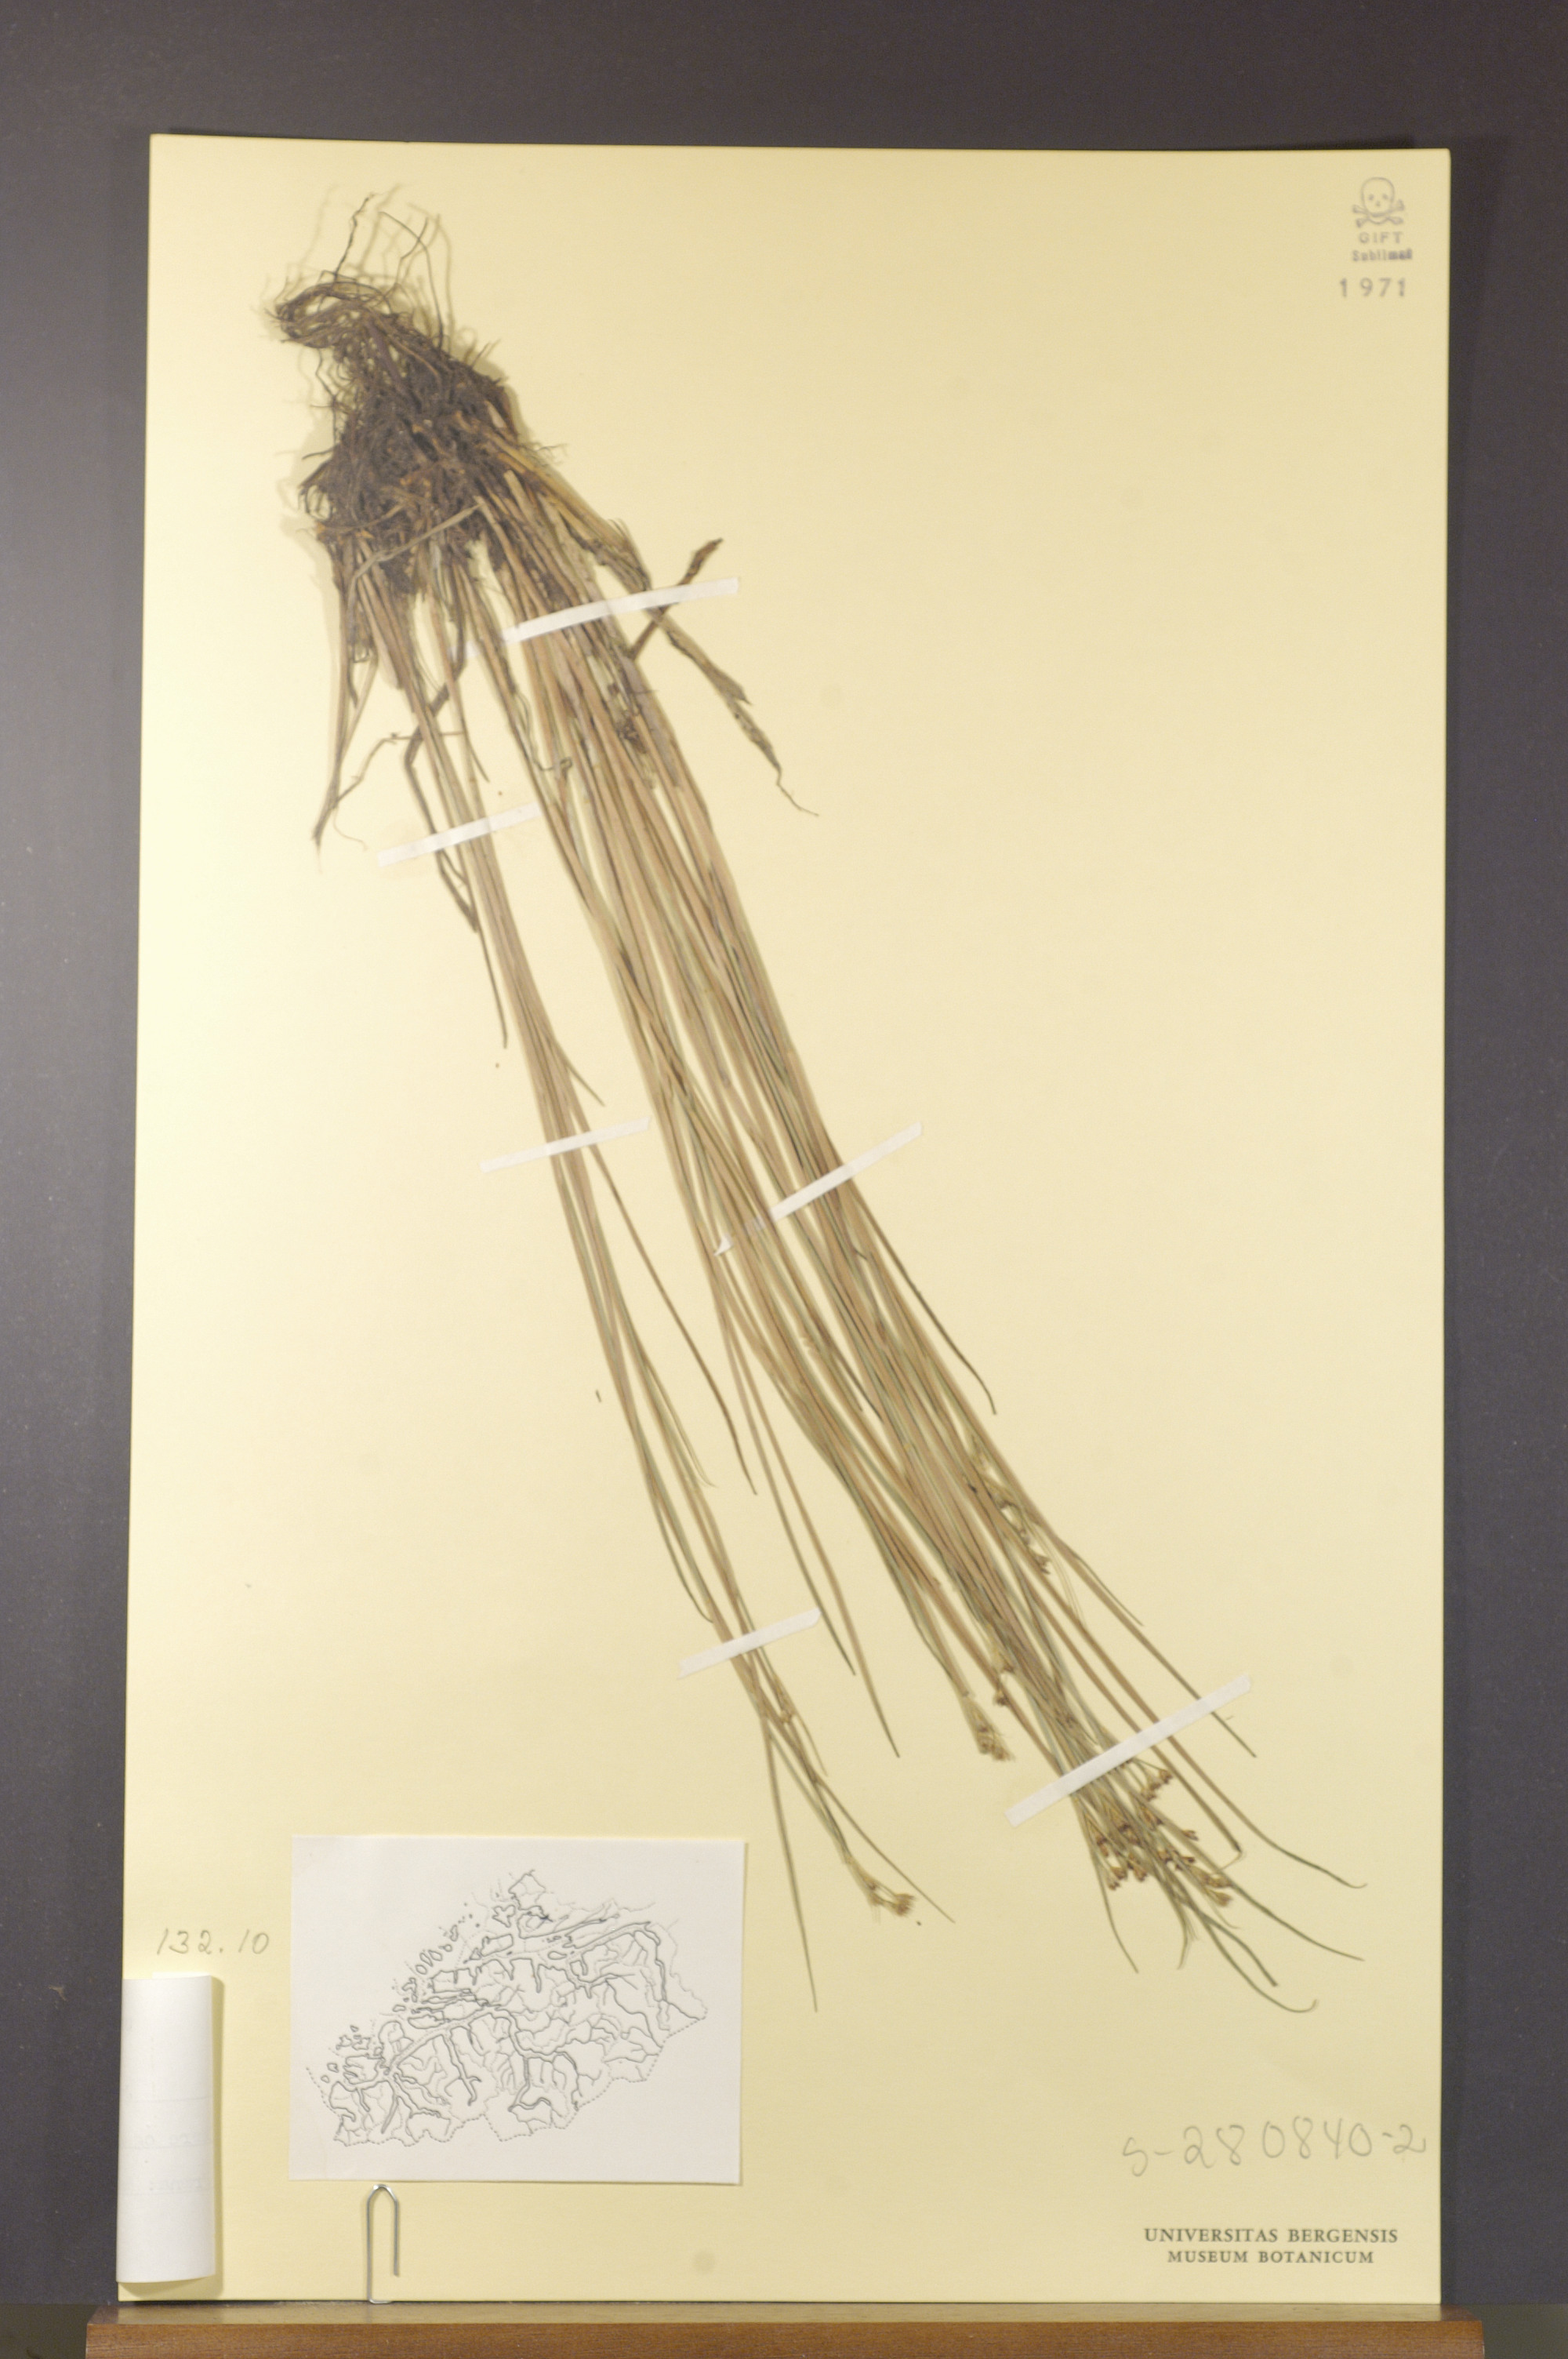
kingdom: Plantae
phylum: Tracheophyta
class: Liliopsida
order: Poales
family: Juncaceae
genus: Juncus
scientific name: Juncus articulatus
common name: Jointed rush
